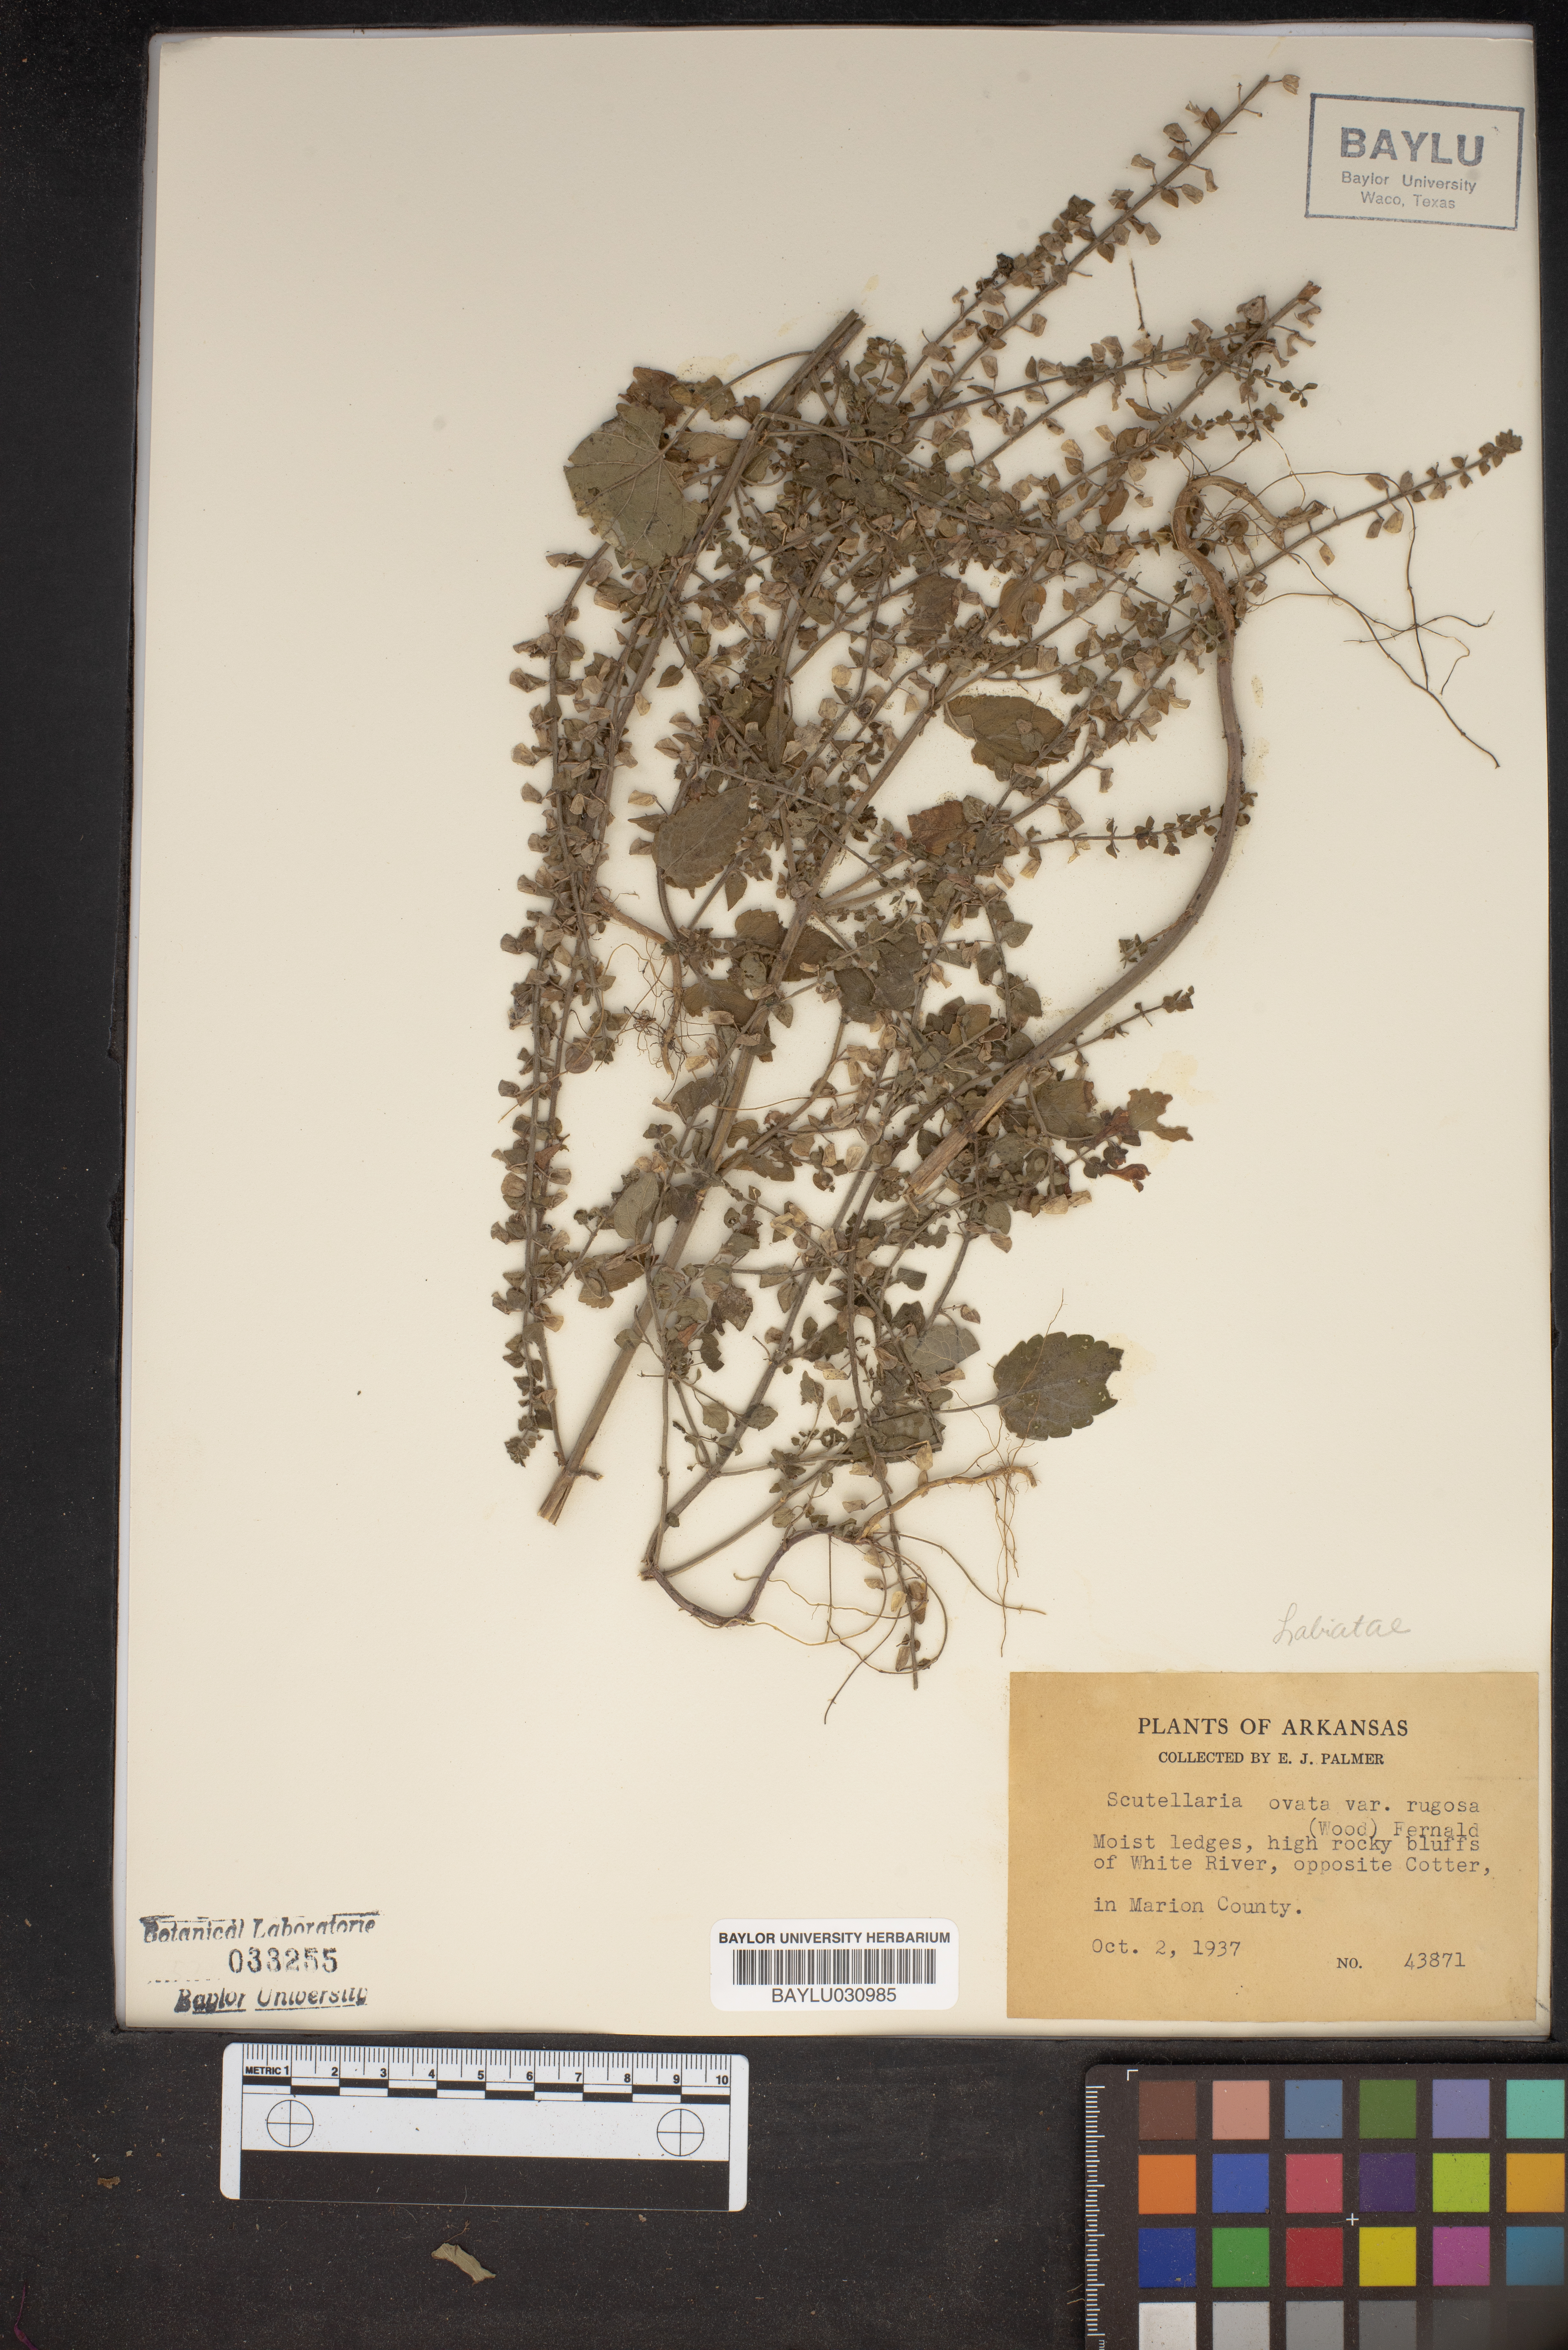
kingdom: Plantae
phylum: Tracheophyta
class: Magnoliopsida
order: Lamiales
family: Lamiaceae
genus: Scutellaria
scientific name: Scutellaria ovata
